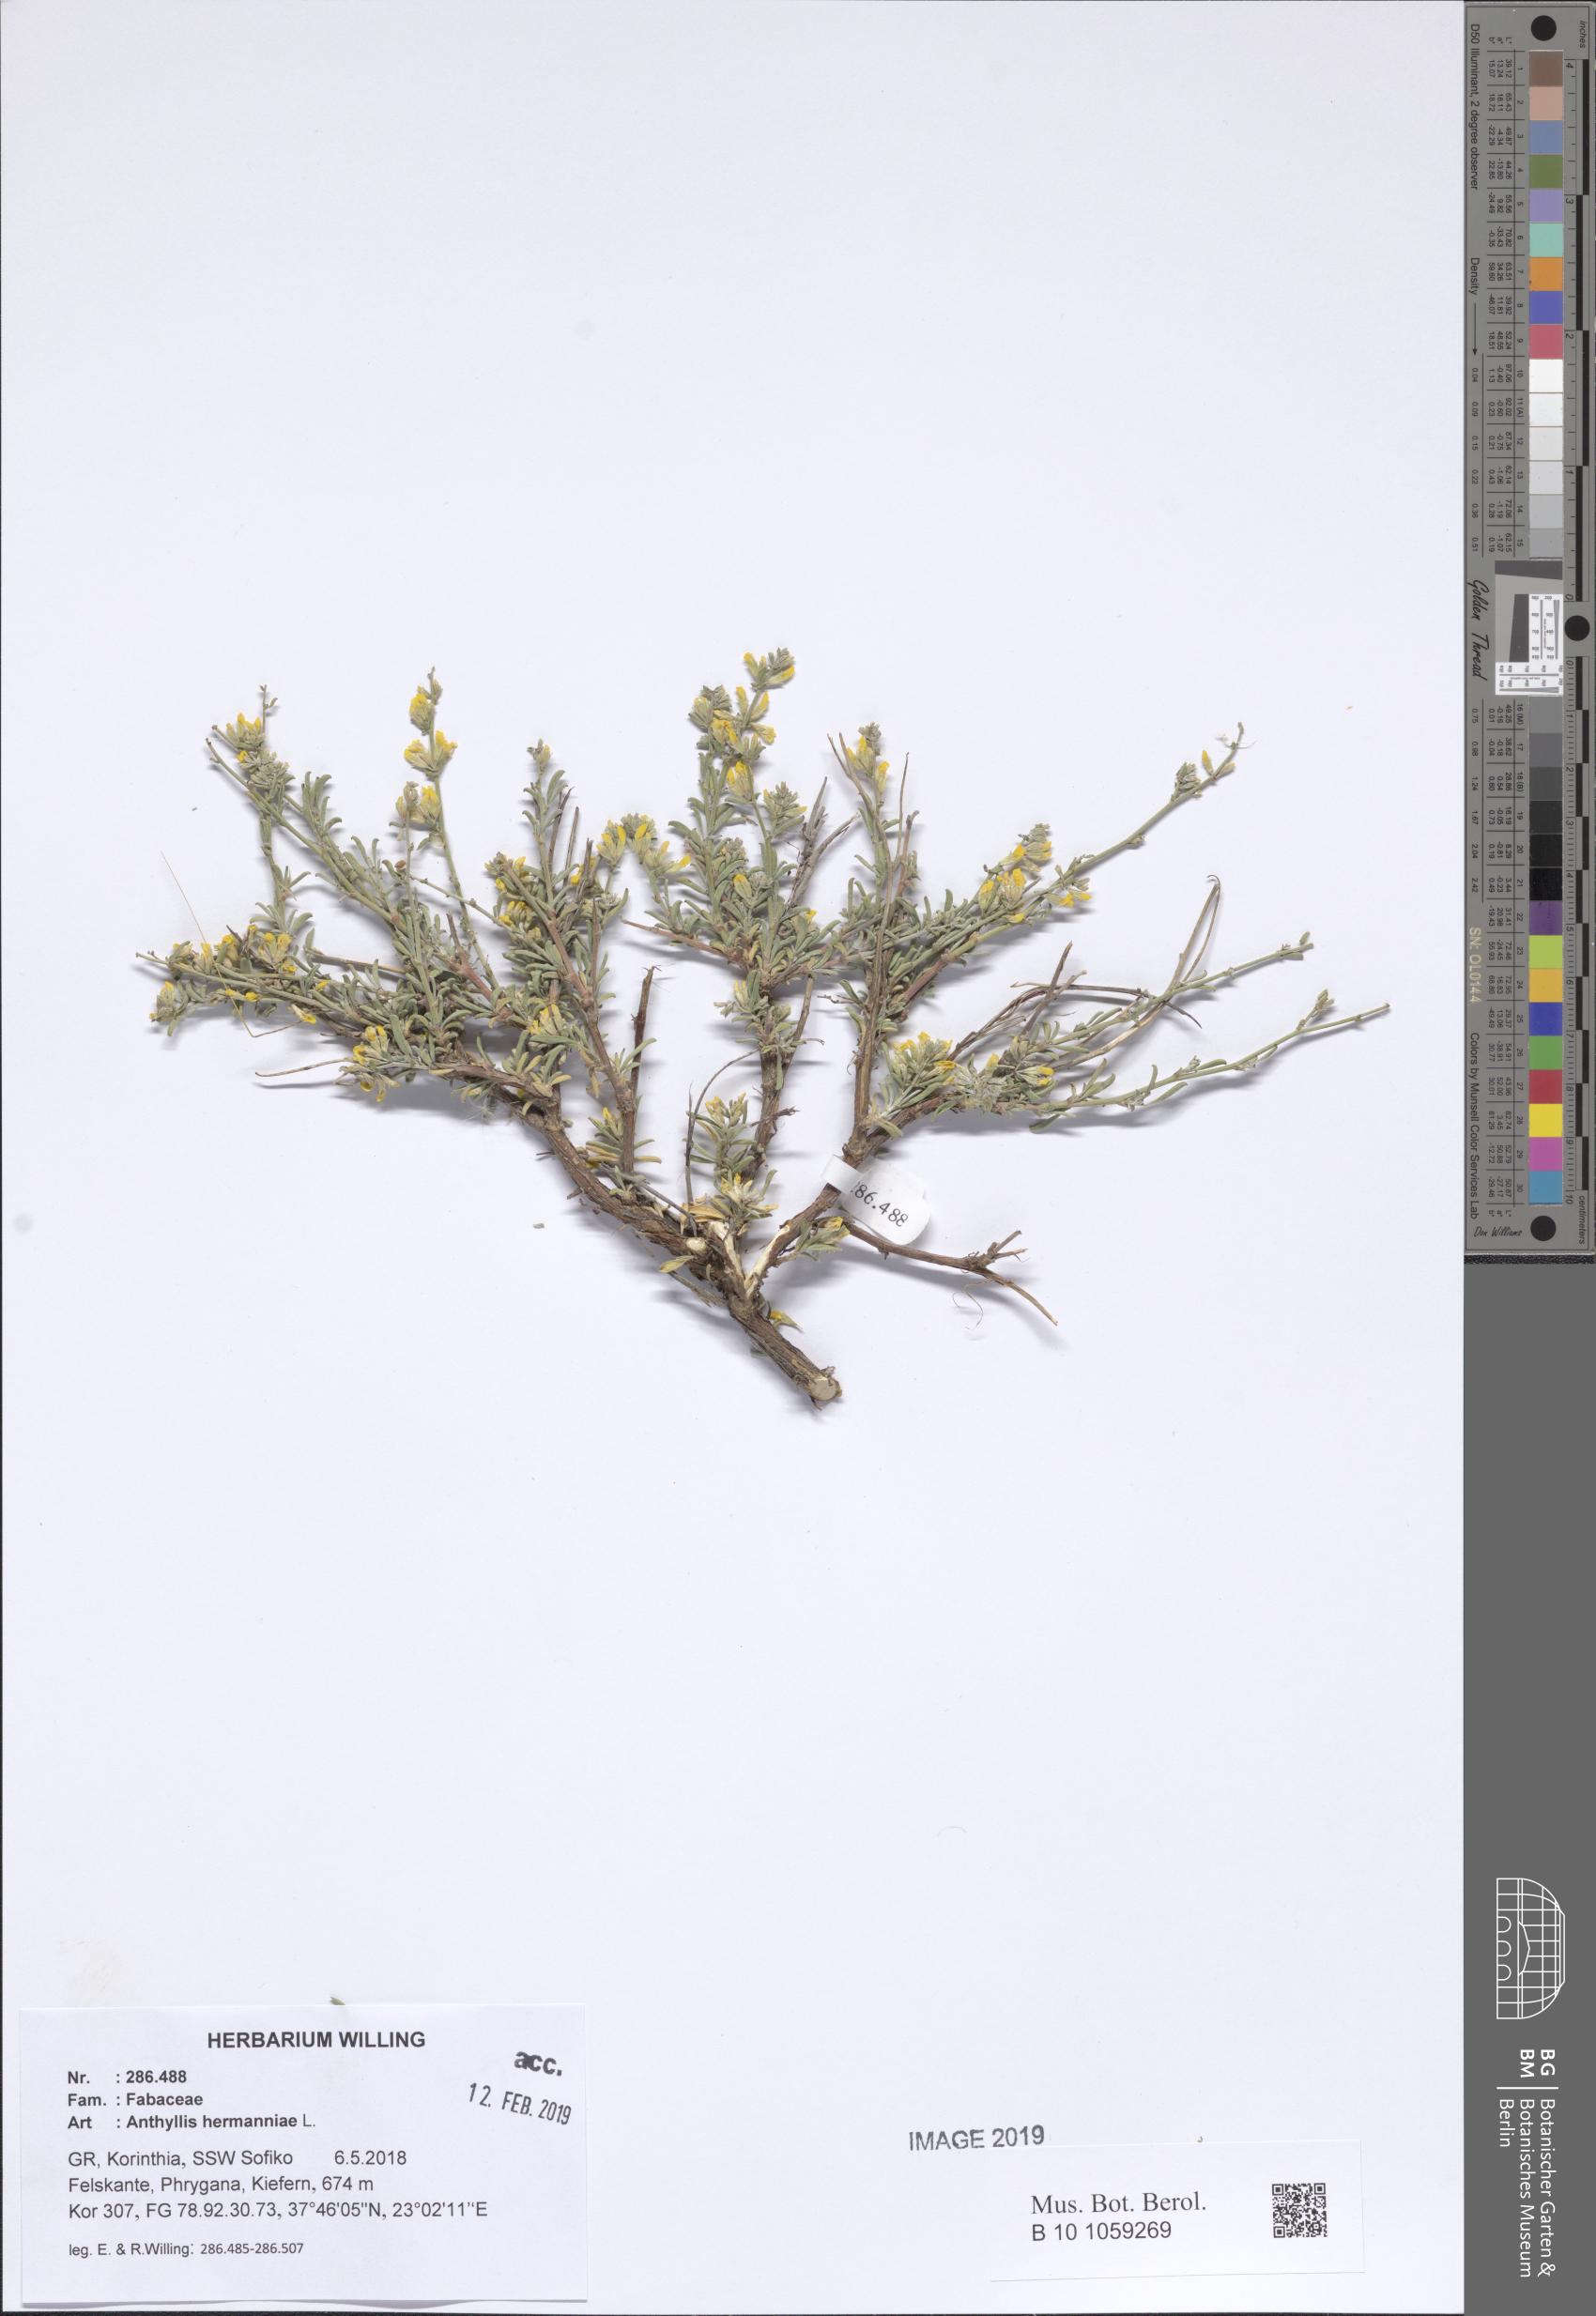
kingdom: Plantae
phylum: Tracheophyta
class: Magnoliopsida
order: Fabales
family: Fabaceae
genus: Anthyllis
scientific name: Anthyllis hermanniae
